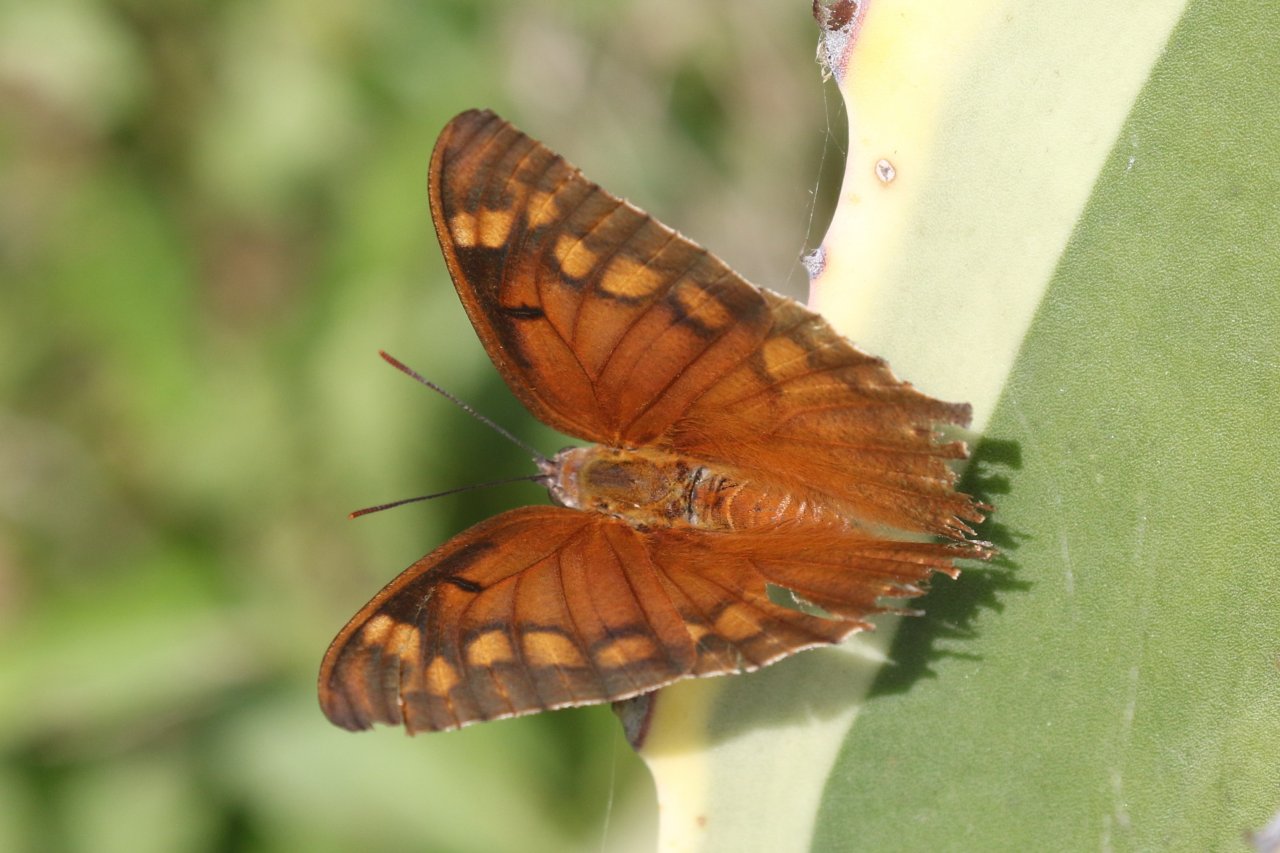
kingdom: Animalia
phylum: Arthropoda
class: Insecta
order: Lepidoptera
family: Nymphalidae
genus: Anaea
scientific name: Anaea aidea
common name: Tropical Leafwing
